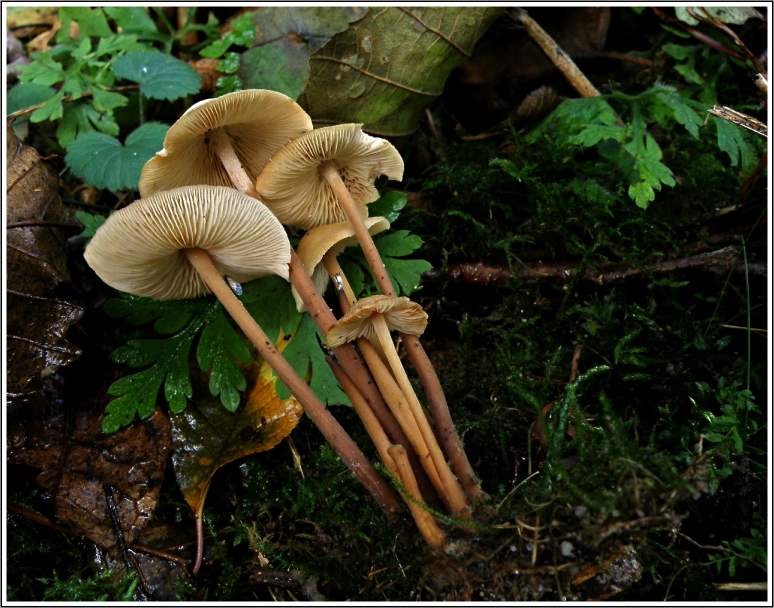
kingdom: Fungi
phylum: Basidiomycota
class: Agaricomycetes
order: Agaricales
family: Omphalotaceae
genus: Collybiopsis
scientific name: Collybiopsis confluens
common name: knippe-fladhat
